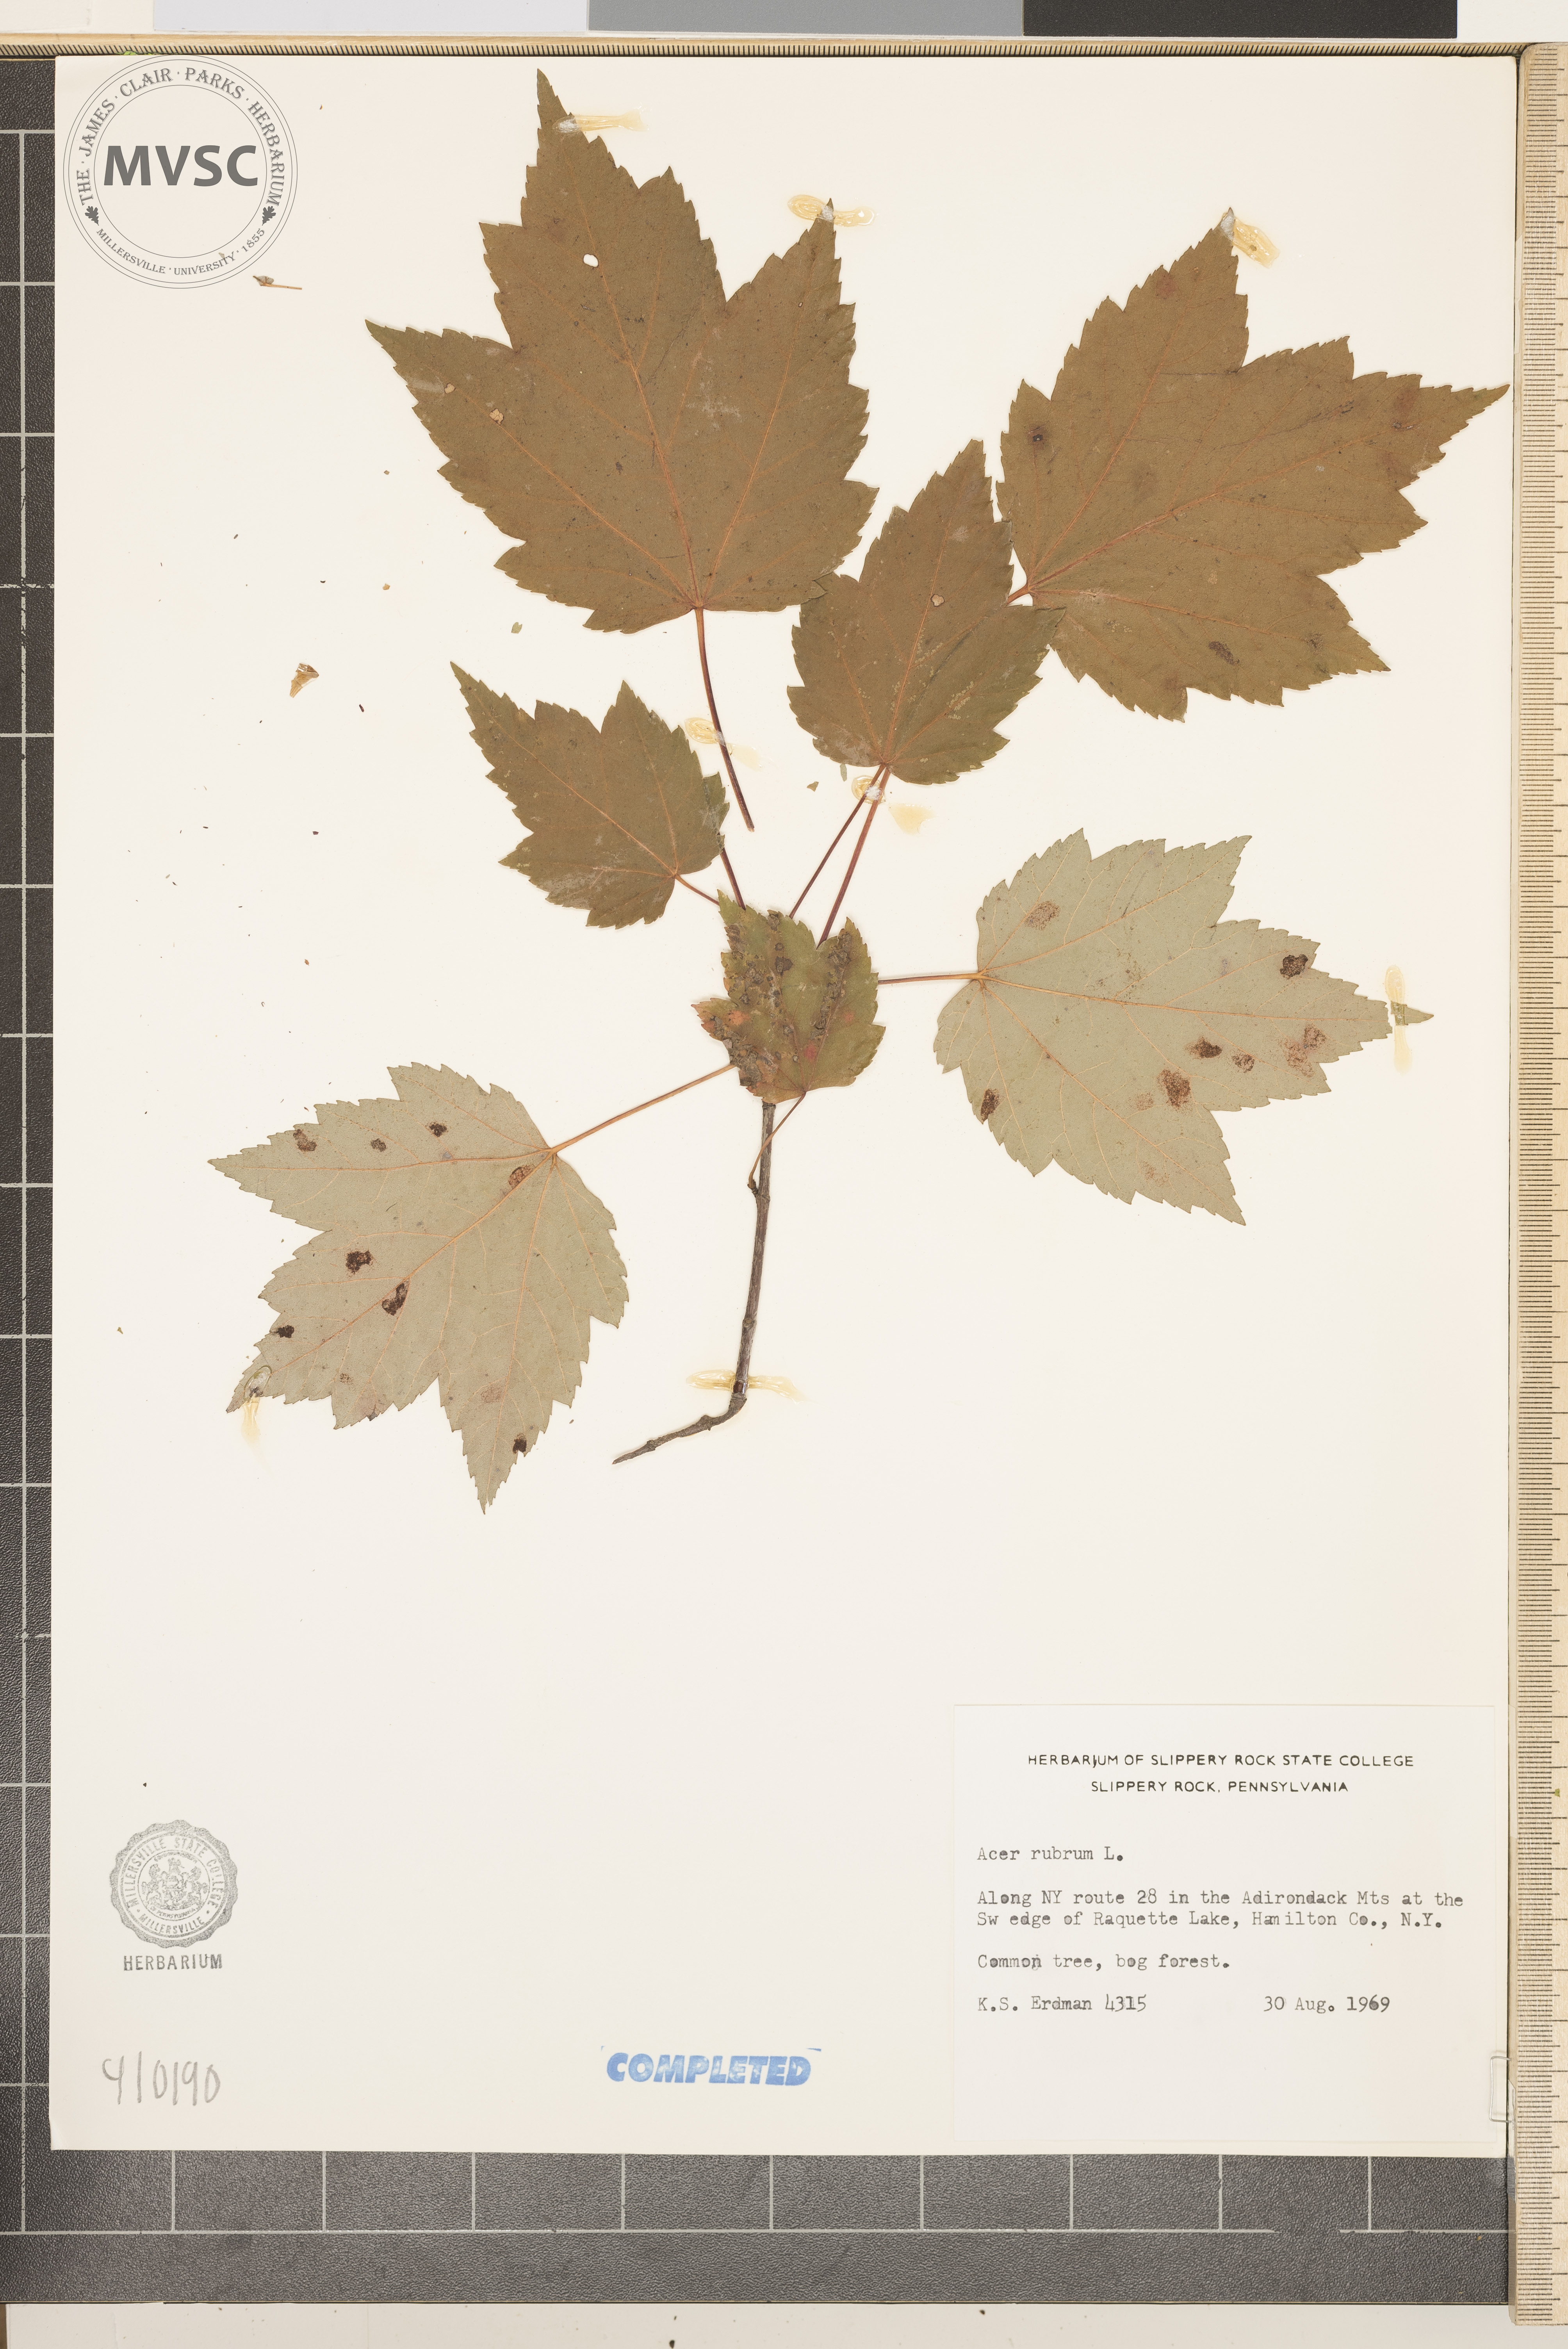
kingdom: Plantae
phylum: Tracheophyta
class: Magnoliopsida
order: Sapindales
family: Sapindaceae
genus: Acer
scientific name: Acer rubrum
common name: Red maple
